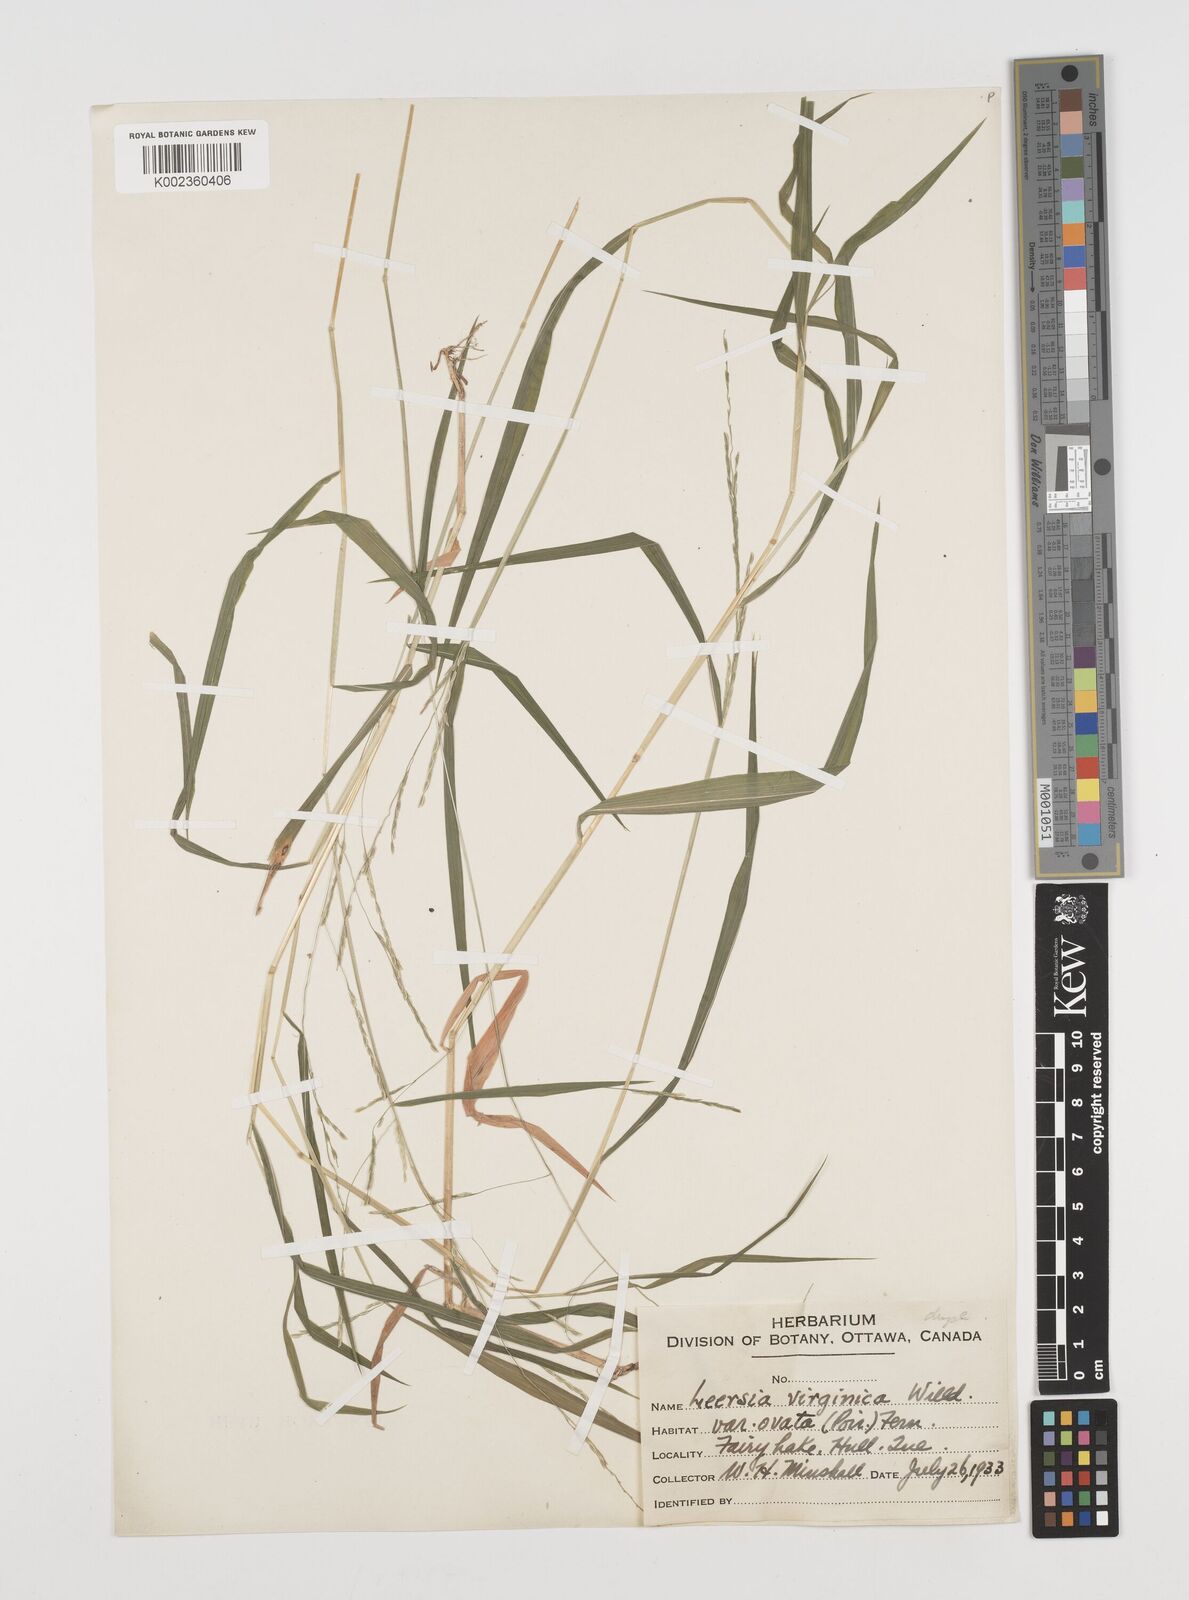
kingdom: Plantae
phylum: Tracheophyta
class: Liliopsida
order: Poales
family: Poaceae
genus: Leersia
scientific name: Leersia virginica
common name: White cutgrass
